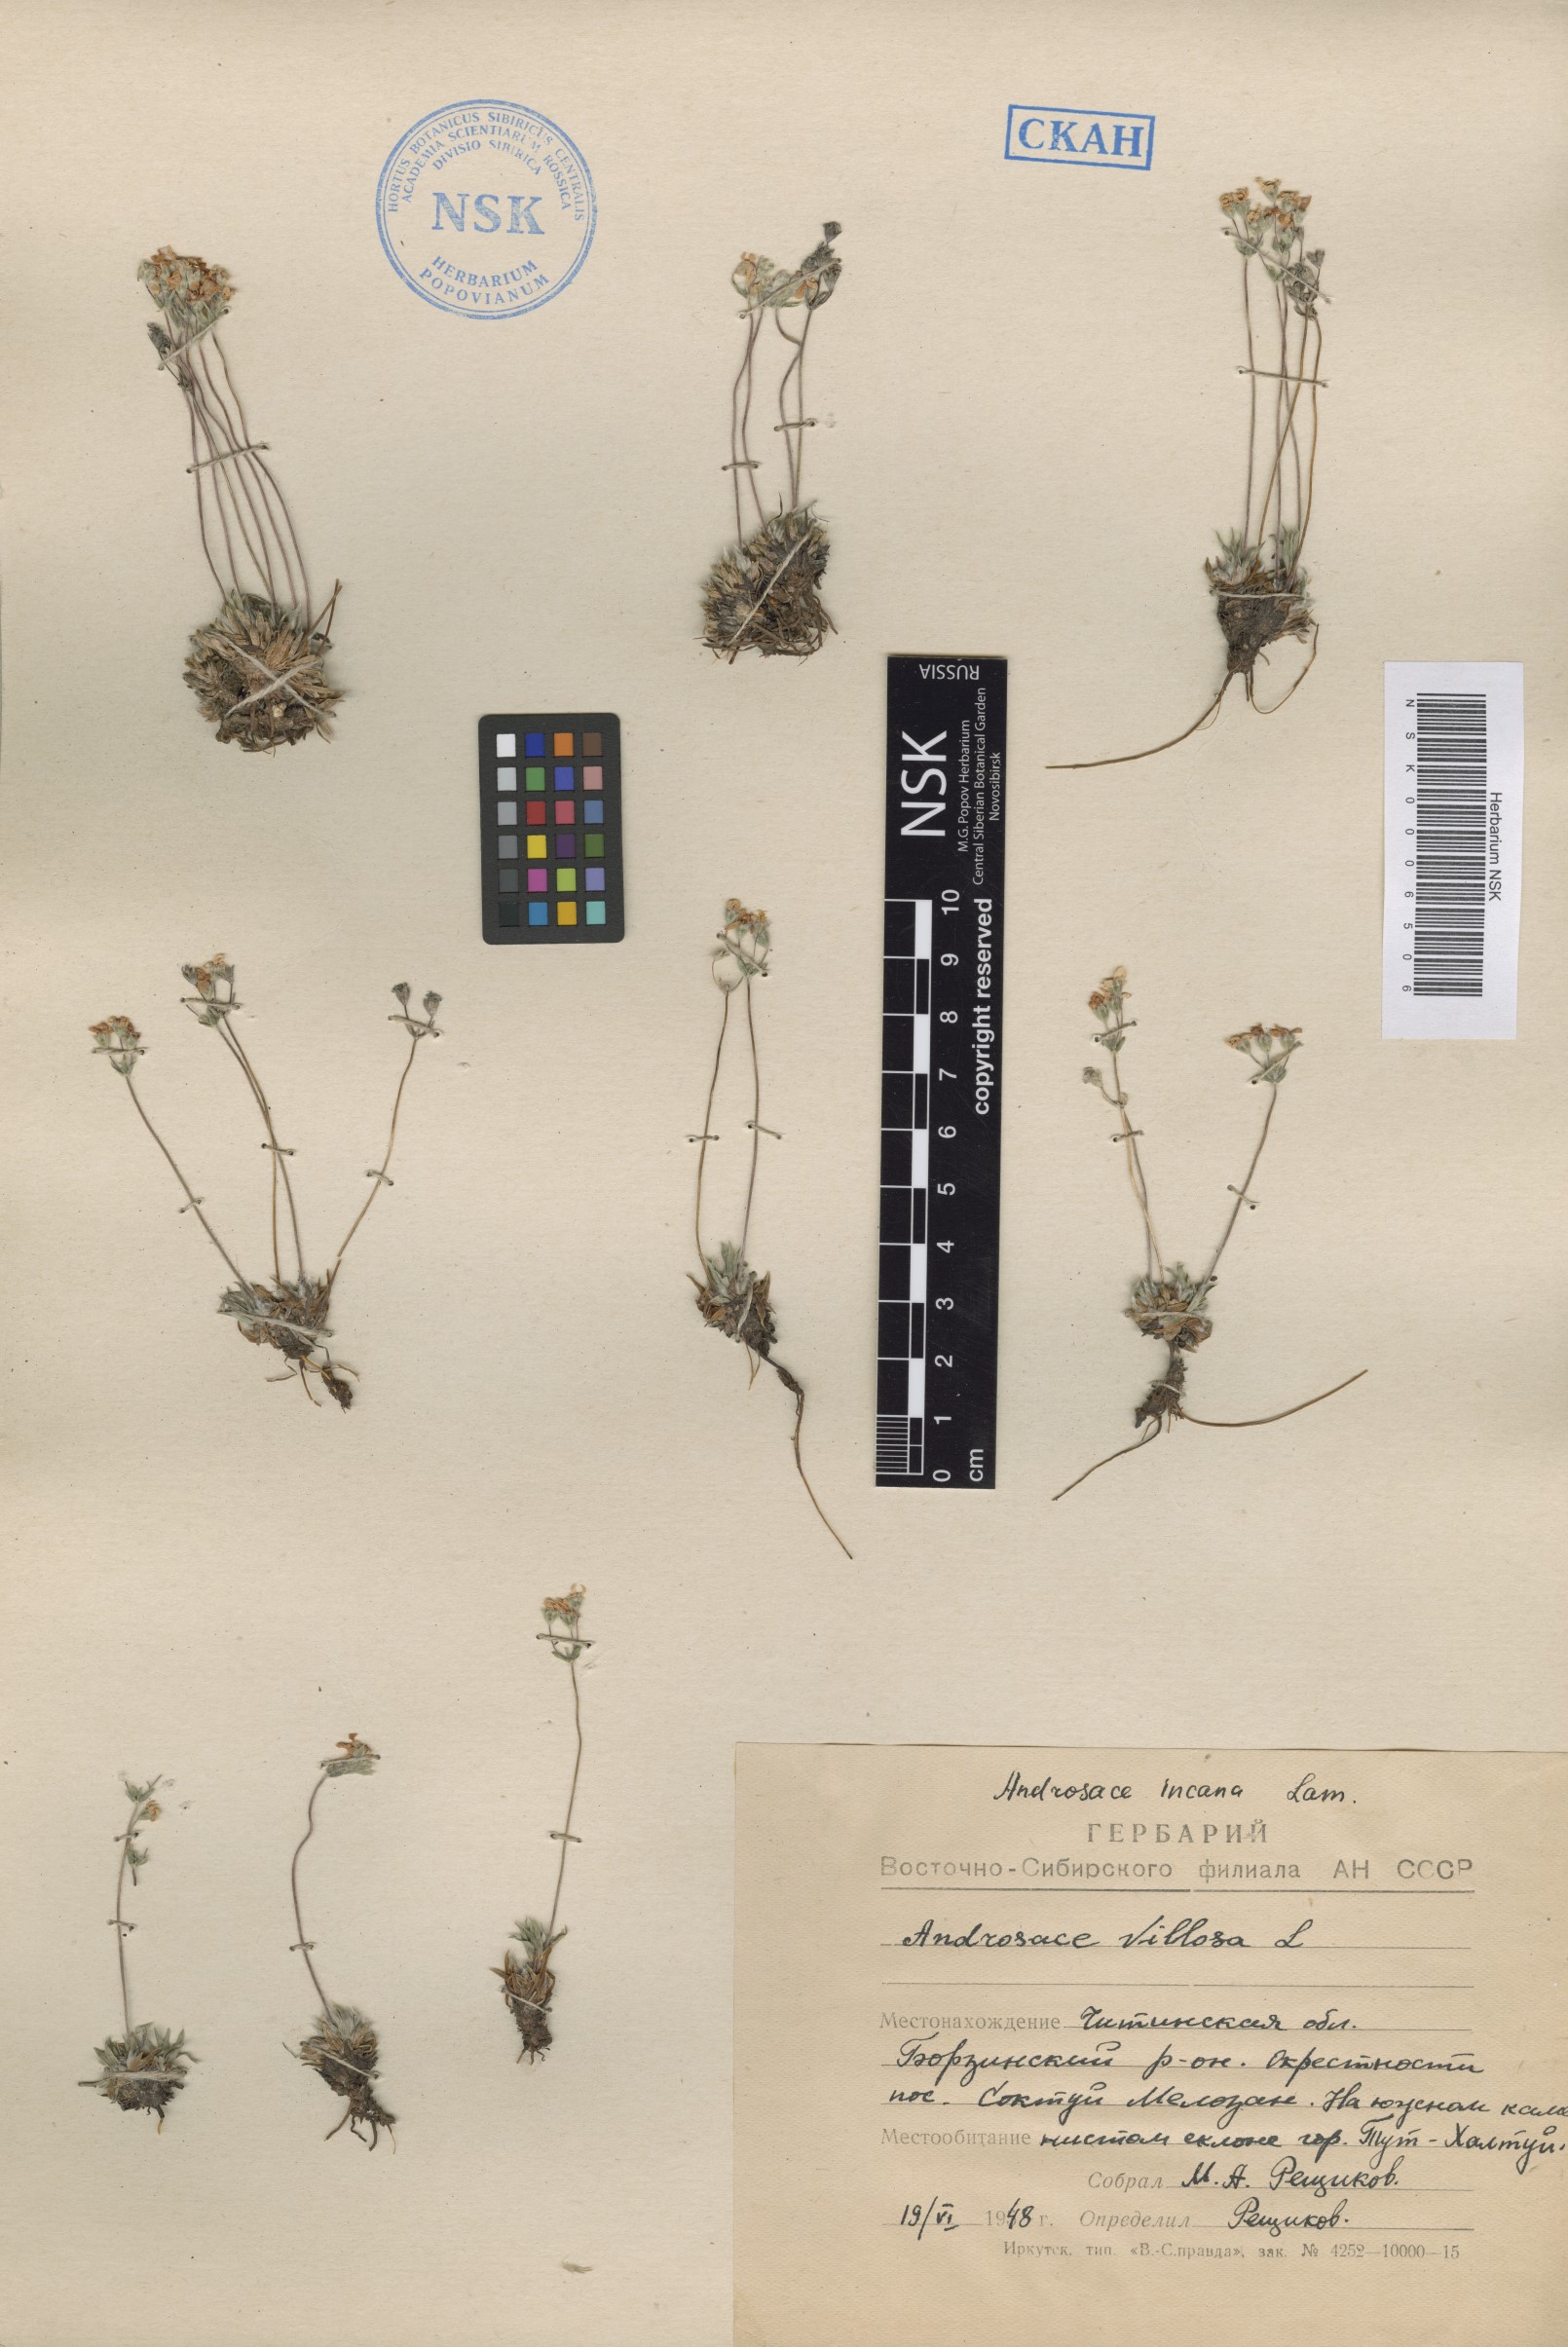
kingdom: Plantae
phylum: Tracheophyta
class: Magnoliopsida
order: Ericales
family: Primulaceae
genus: Androsace
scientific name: Androsace incana
